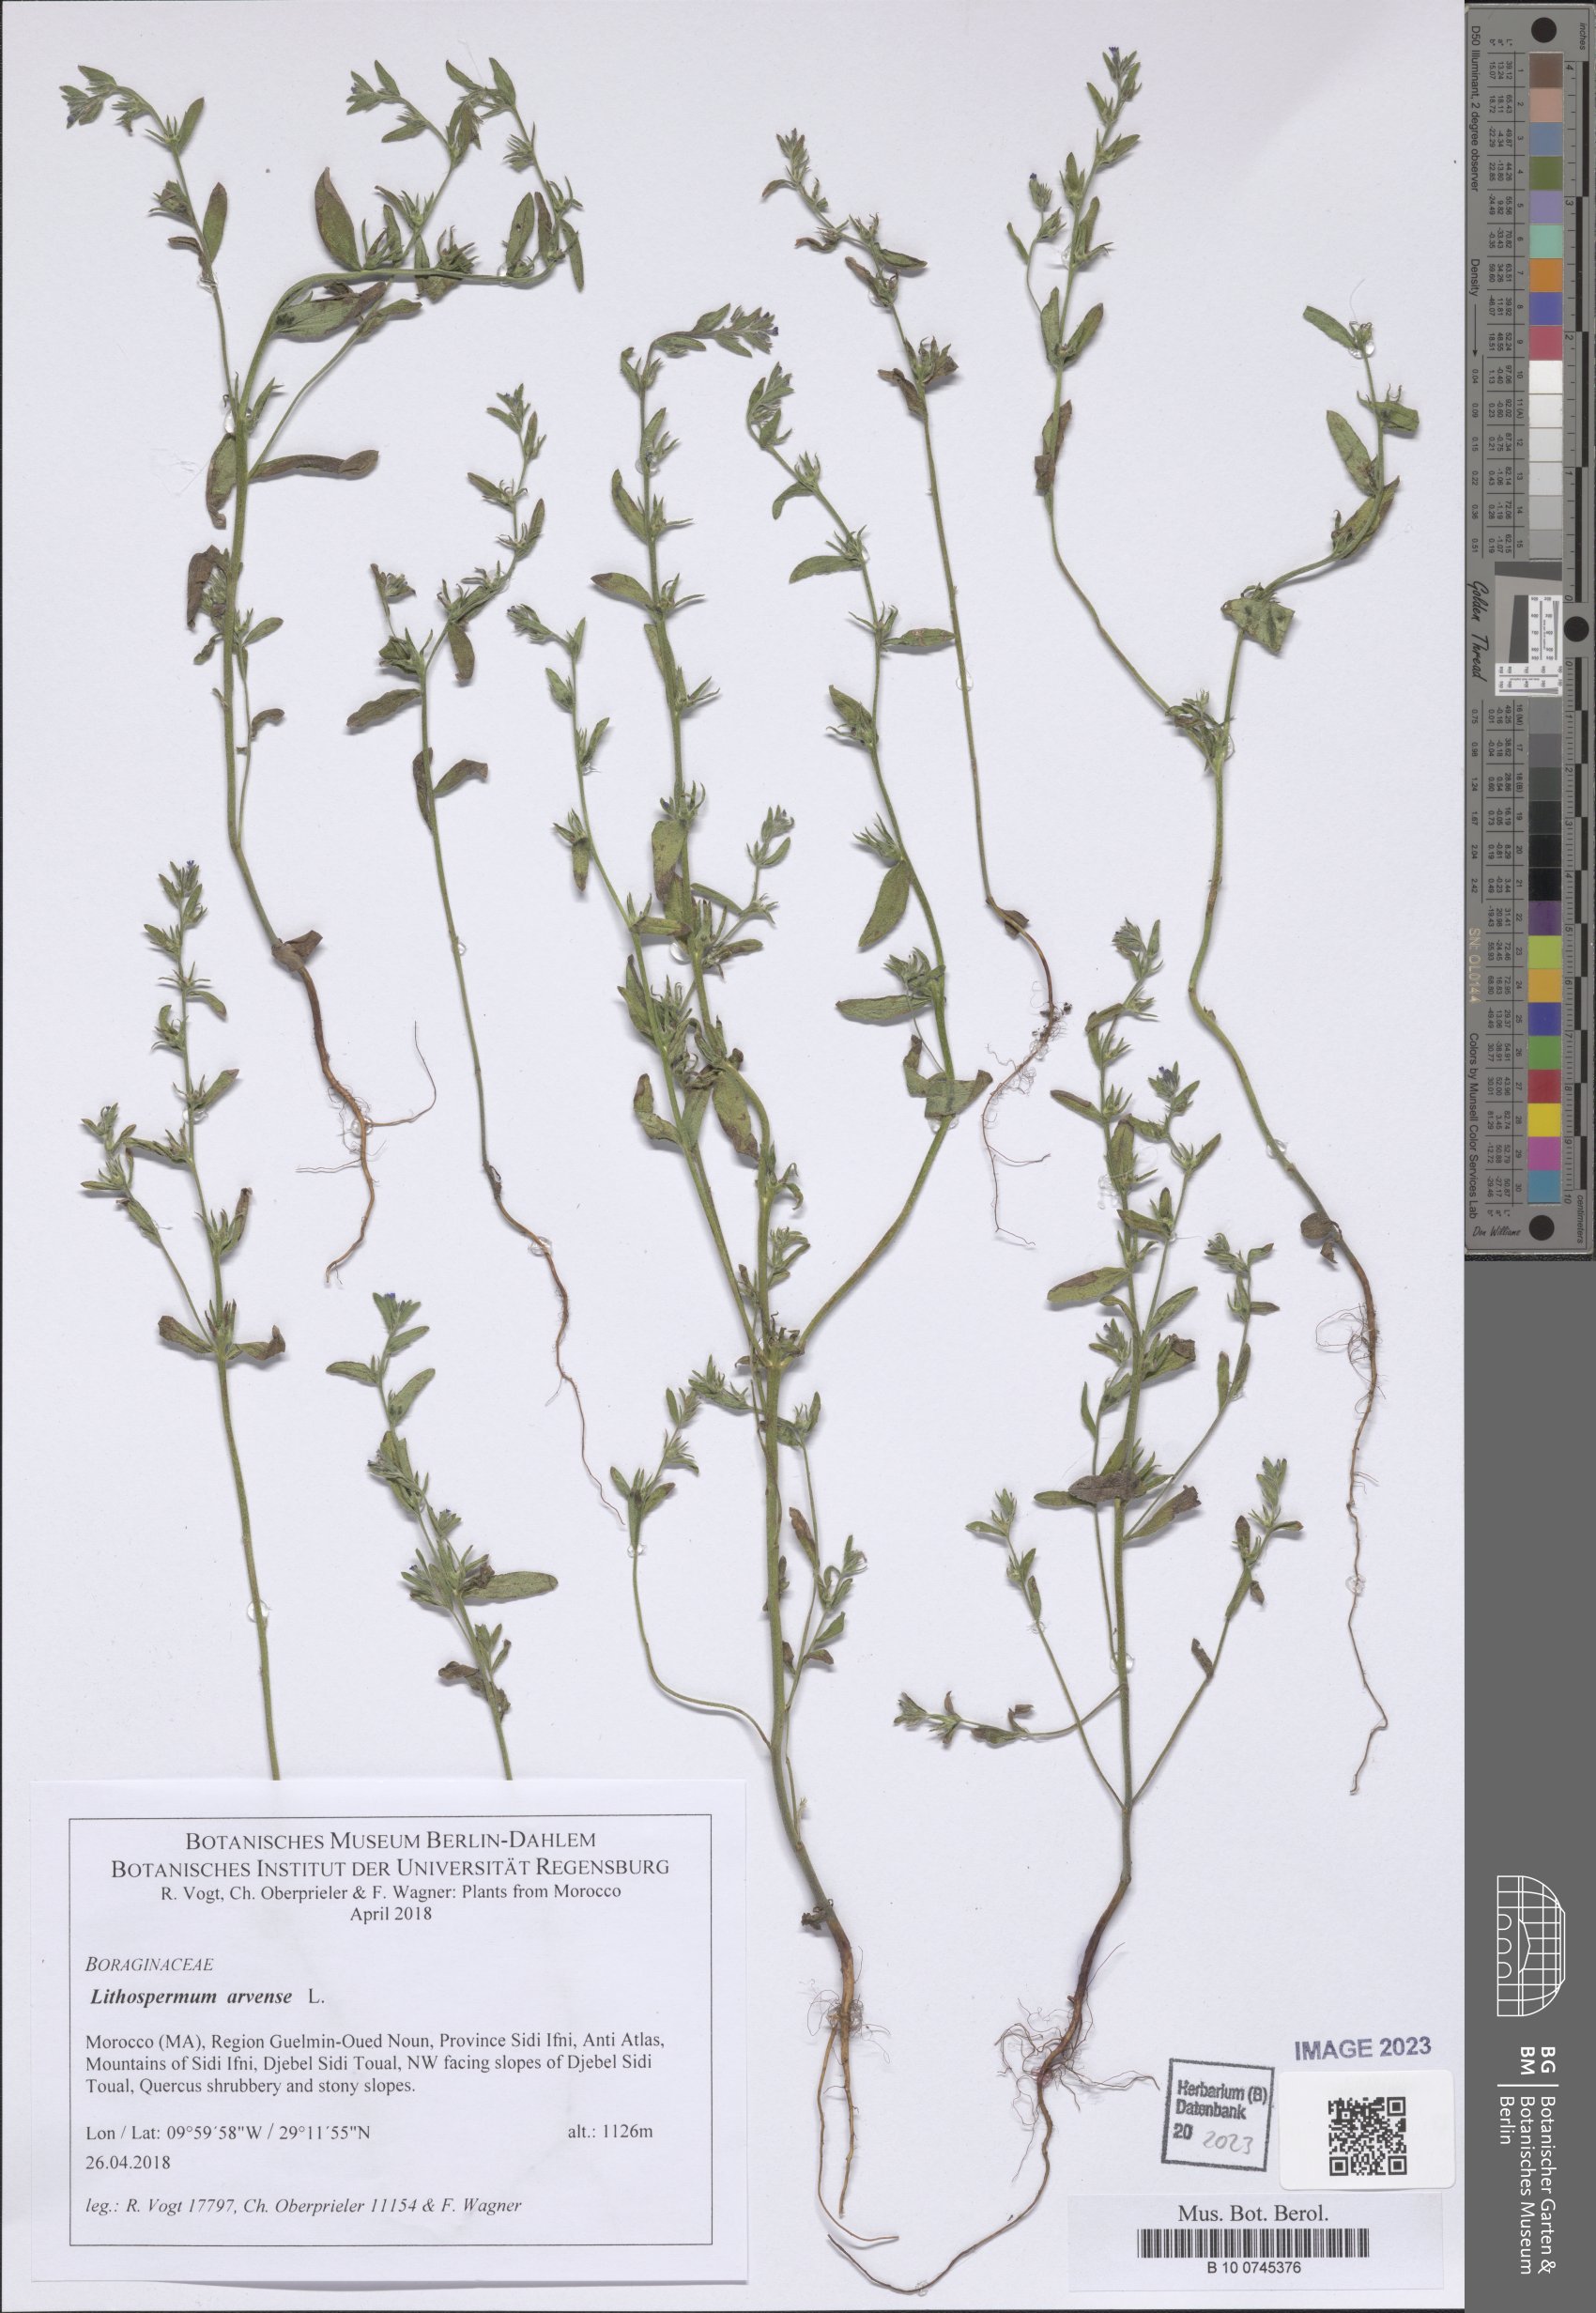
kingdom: Plantae
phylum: Tracheophyta
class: Magnoliopsida
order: Boraginales
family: Boraginaceae
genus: Buglossoides
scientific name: Buglossoides arvensis
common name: Corn gromwell
